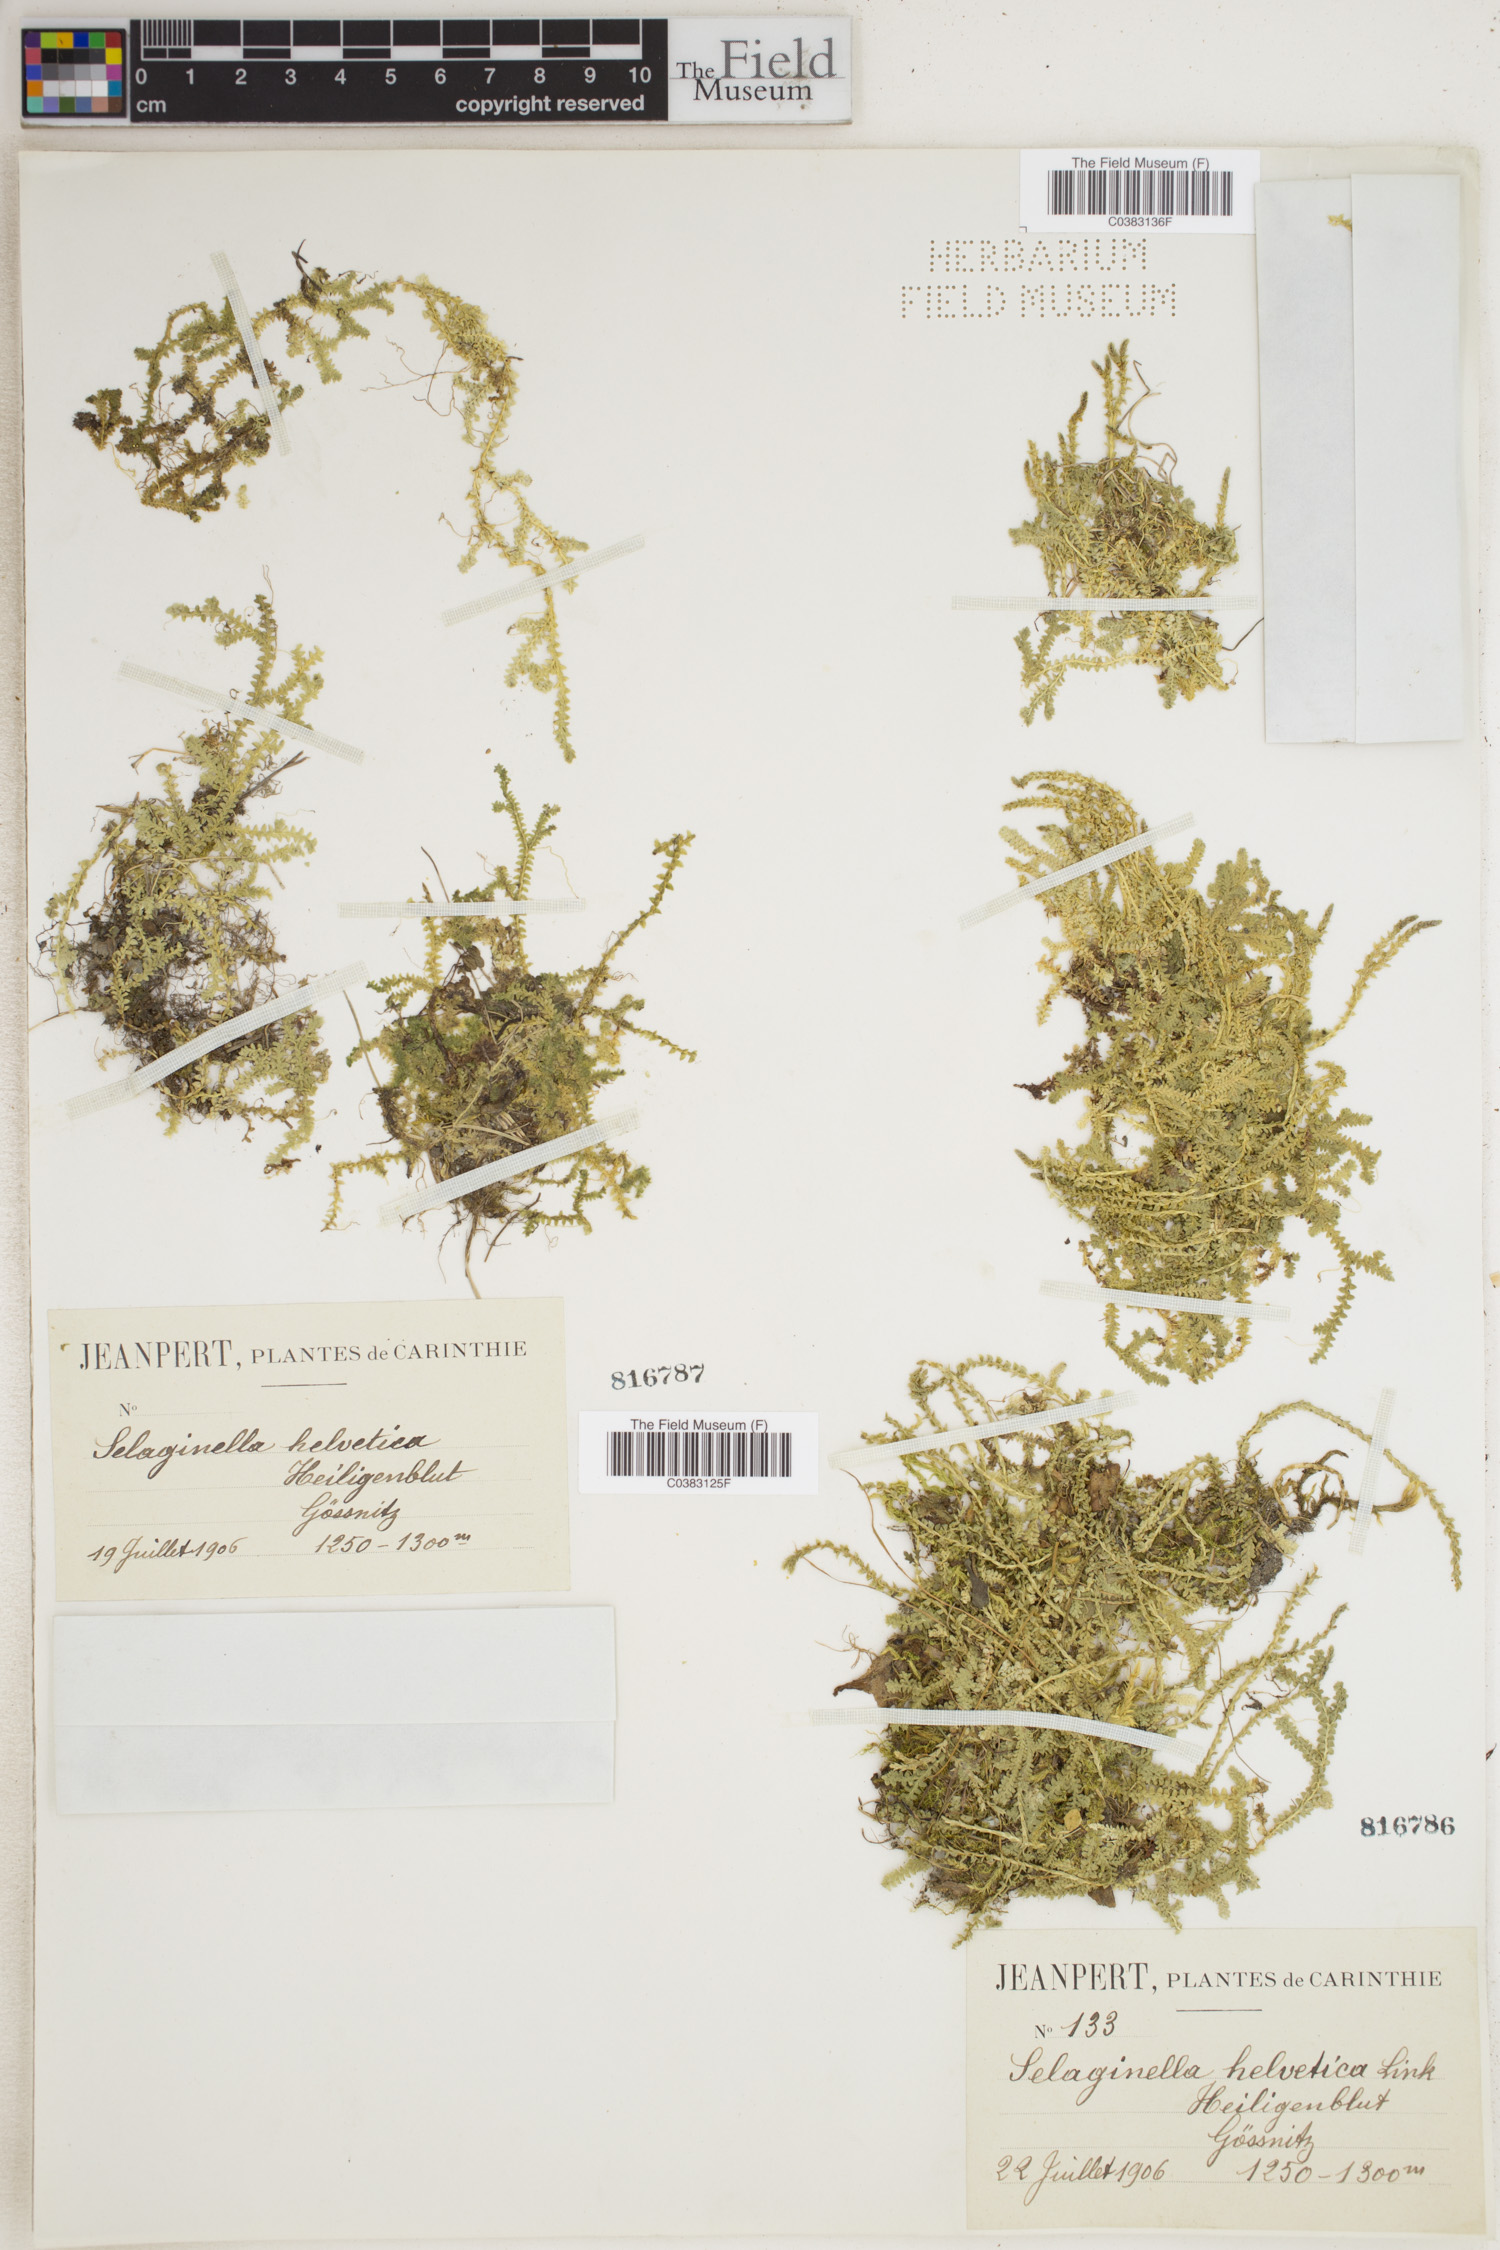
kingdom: Plantae
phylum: Tracheophyta
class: Lycopodiopsida
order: Selaginellales
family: Selaginellaceae
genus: Selaginella
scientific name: Selaginella helvetica
